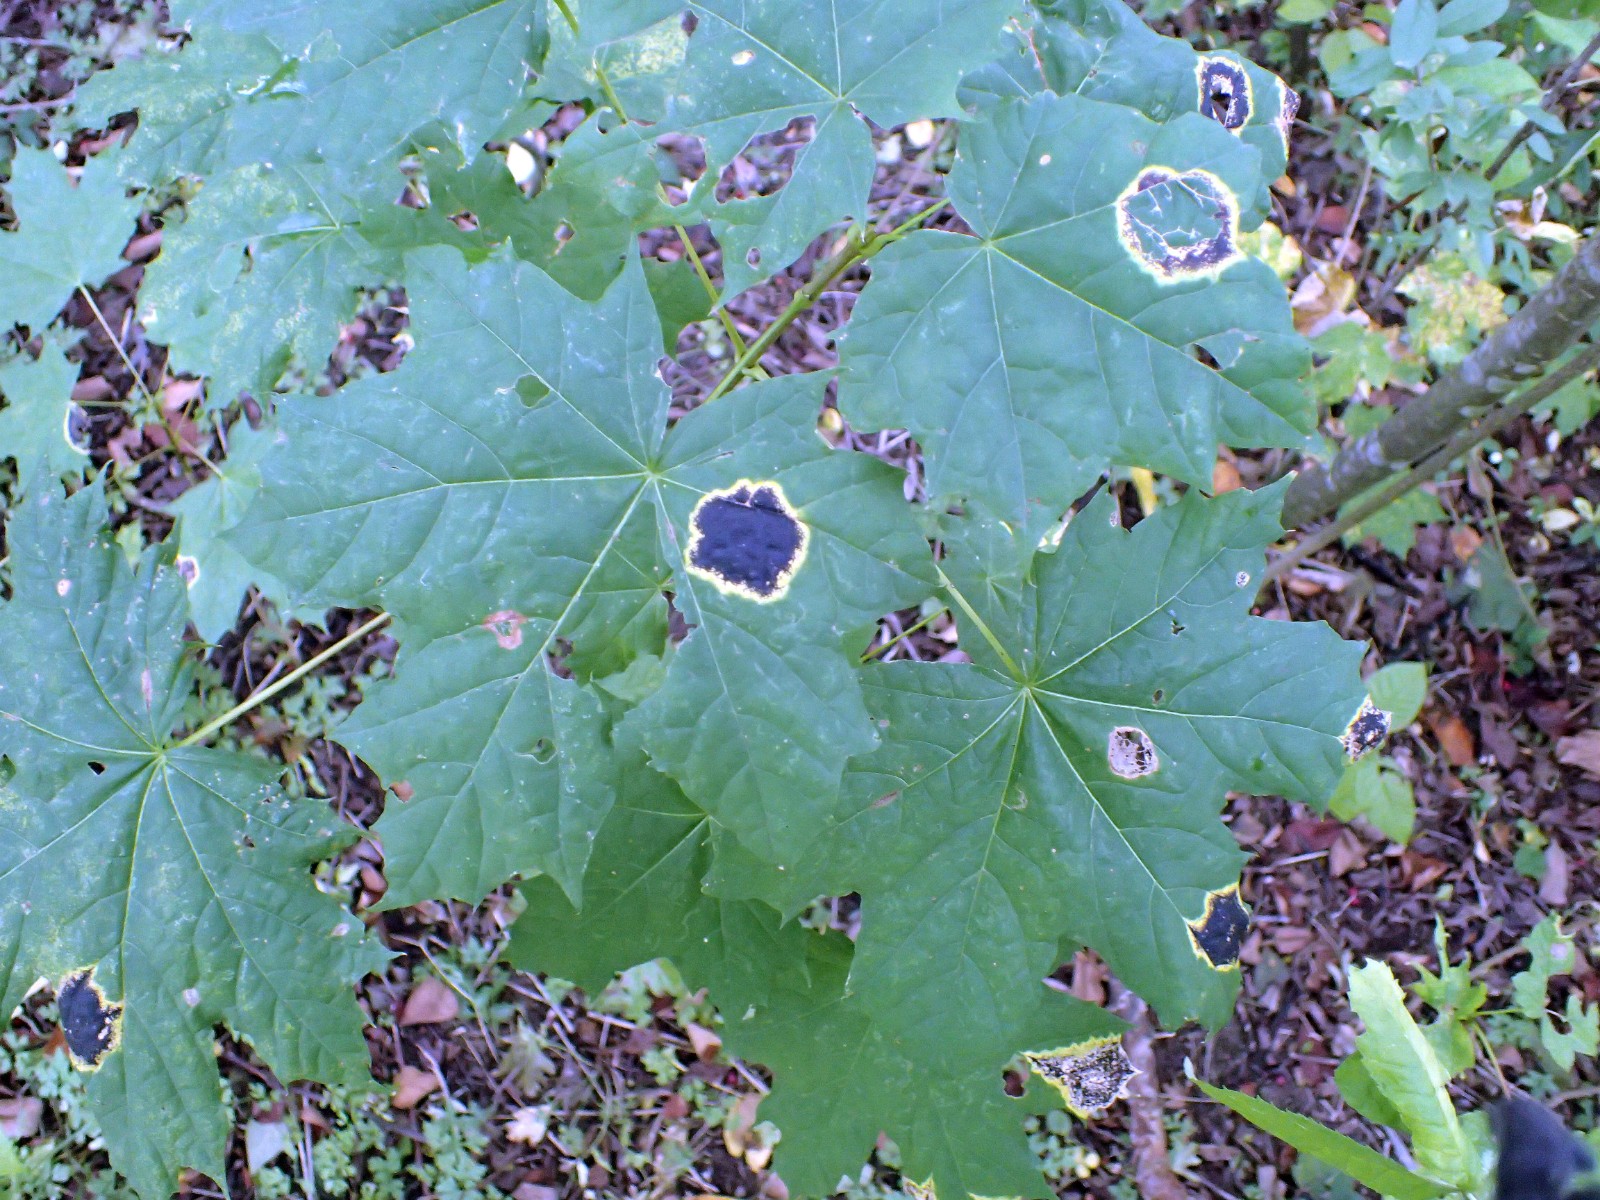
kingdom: Fungi
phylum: Ascomycota
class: Leotiomycetes
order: Rhytismatales
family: Rhytismataceae
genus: Rhytisma
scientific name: Rhytisma acerinum
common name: ahorn-rynkeplet
